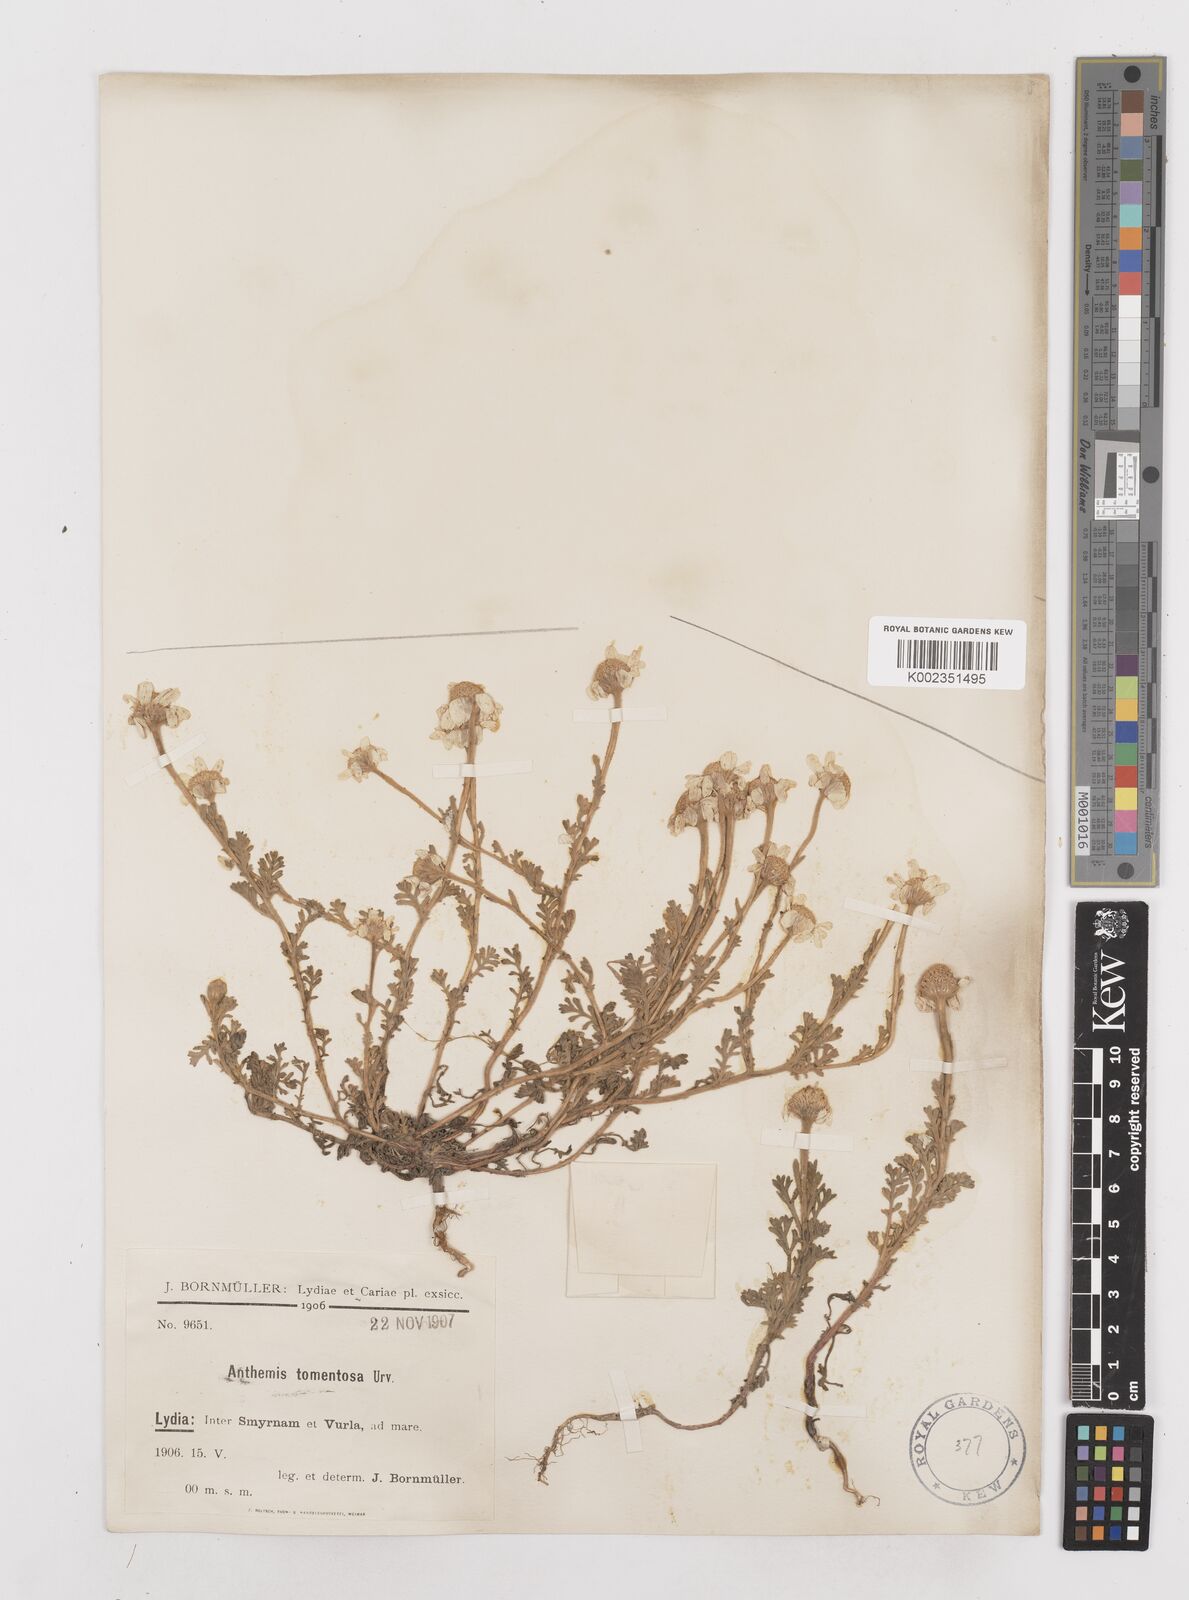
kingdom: Plantae
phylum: Tracheophyta
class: Magnoliopsida
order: Asterales
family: Asteraceae
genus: Anthemis
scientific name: Anthemis tomentosa
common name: Woolly chamomile
